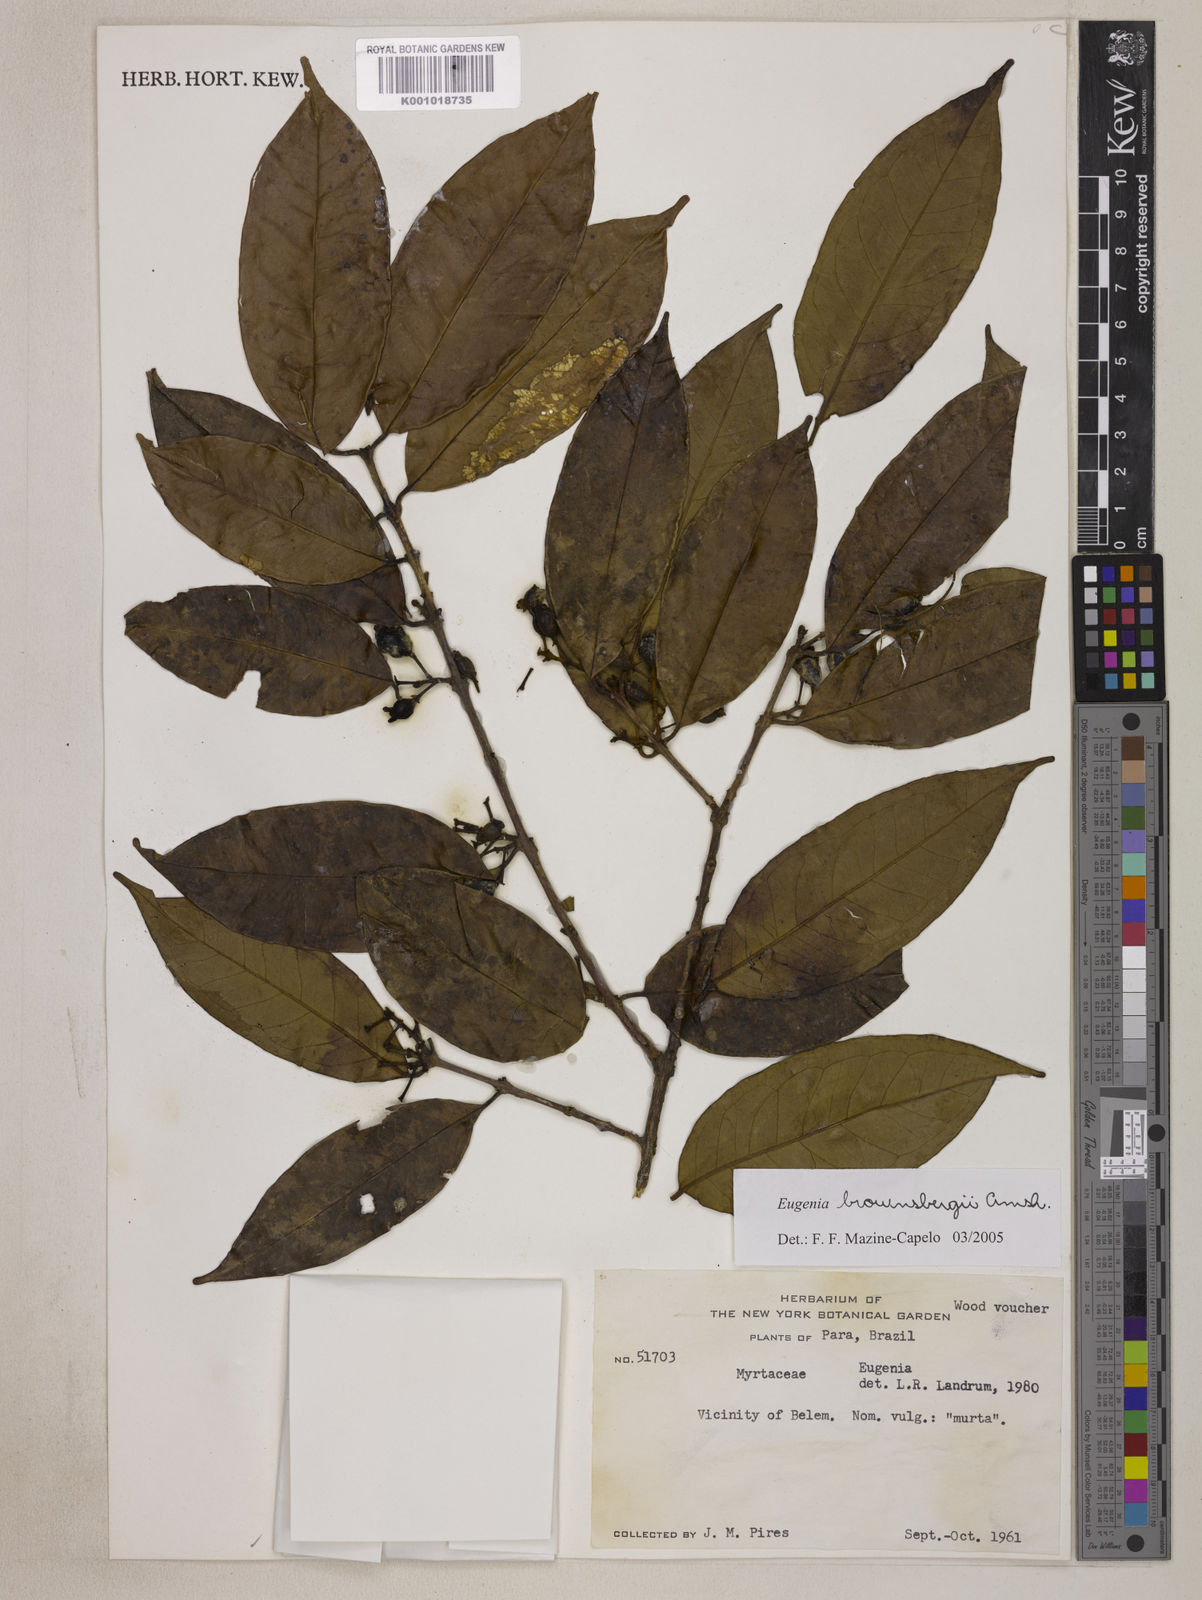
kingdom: Plantae
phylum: Tracheophyta
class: Magnoliopsida
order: Myrtales
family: Myrtaceae
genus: Eugenia
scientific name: Eugenia brownsbergii
